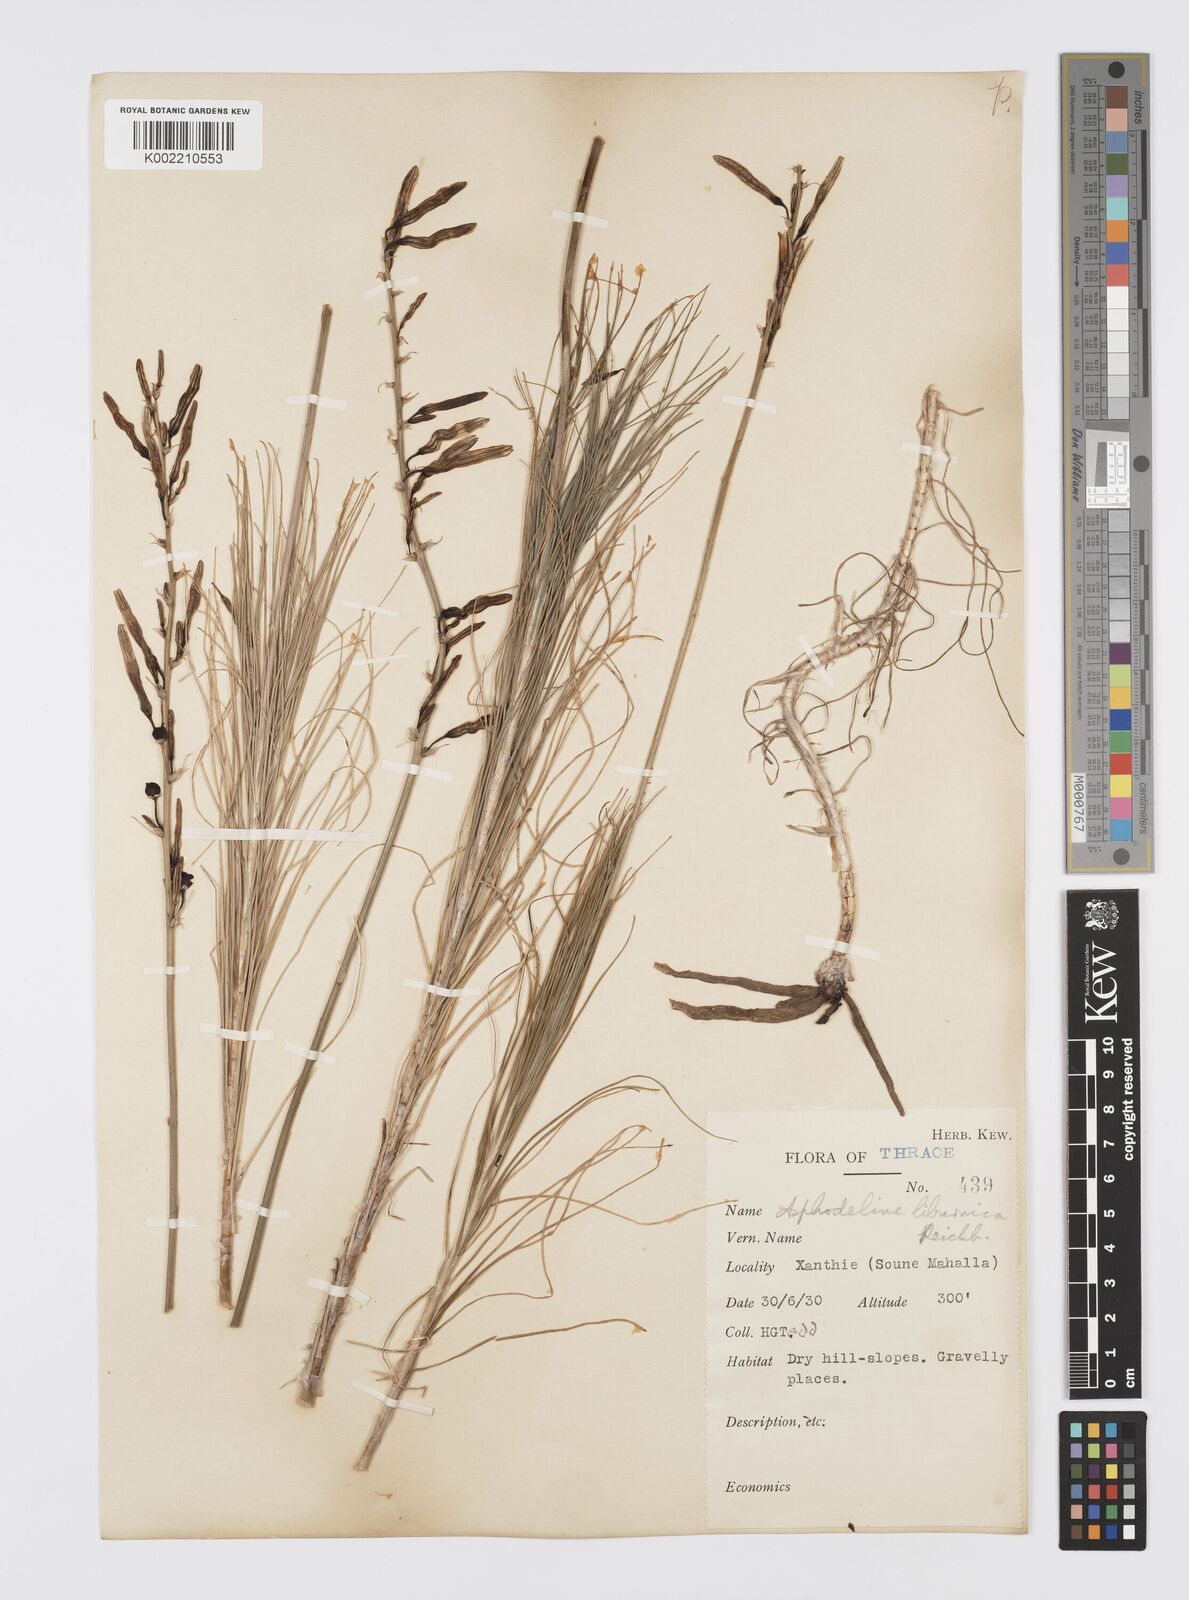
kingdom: Plantae
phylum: Tracheophyta
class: Liliopsida
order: Asparagales
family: Asphodelaceae
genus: Asphodeline
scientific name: Asphodeline liburnica
